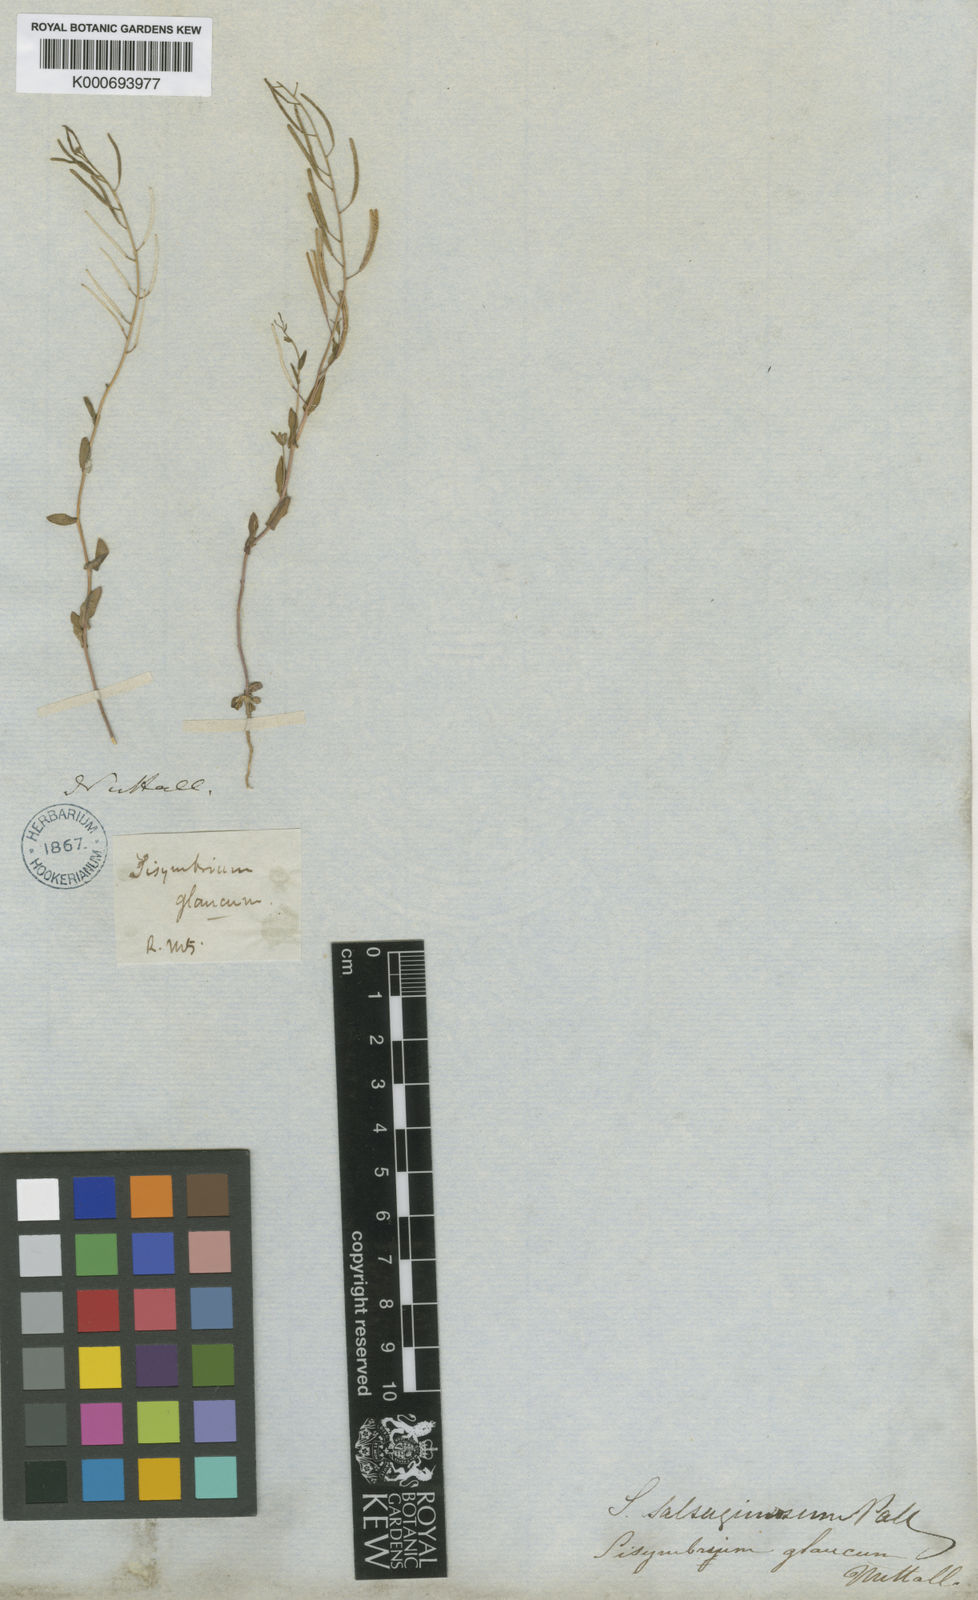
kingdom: Plantae
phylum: Tracheophyta
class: Magnoliopsida
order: Brassicales
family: Brassicaceae
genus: Eutrema
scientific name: Eutrema salsugineum
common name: Mouse-ear cress
